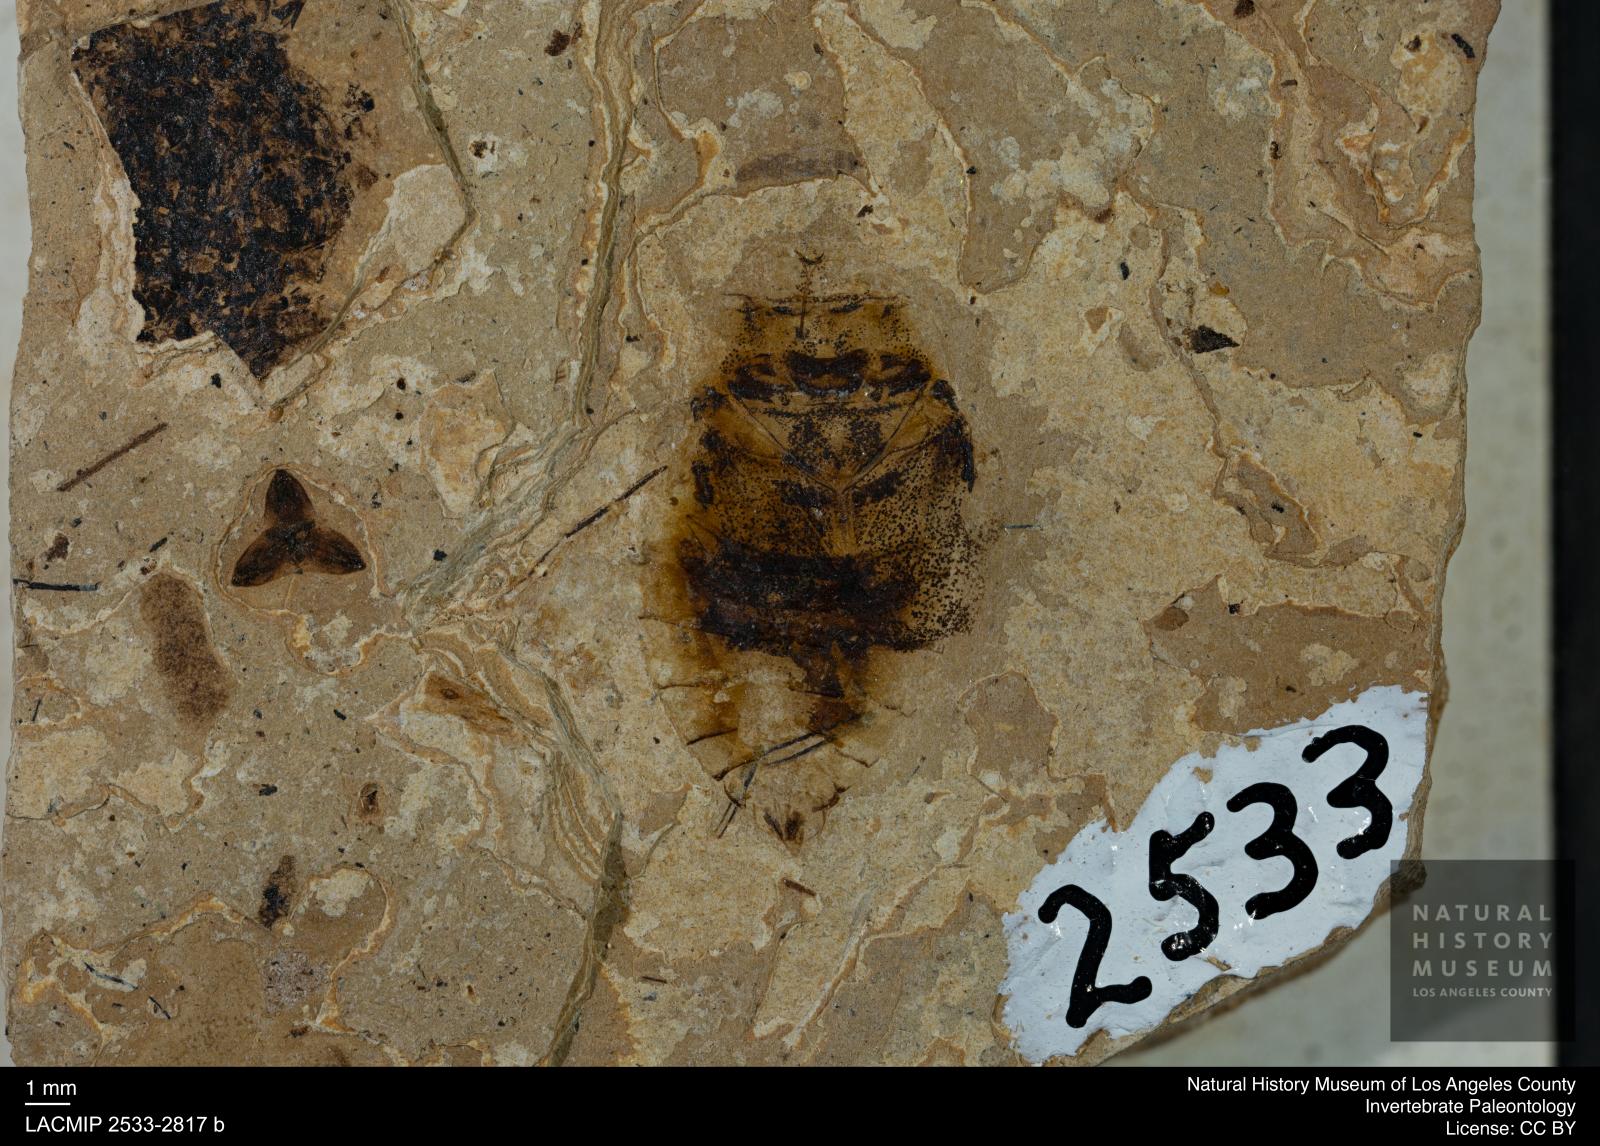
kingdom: Animalia
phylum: Arthropoda
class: Insecta
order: Hemiptera
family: Naucoridae
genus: Naucoris
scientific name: Naucoris rottensis
